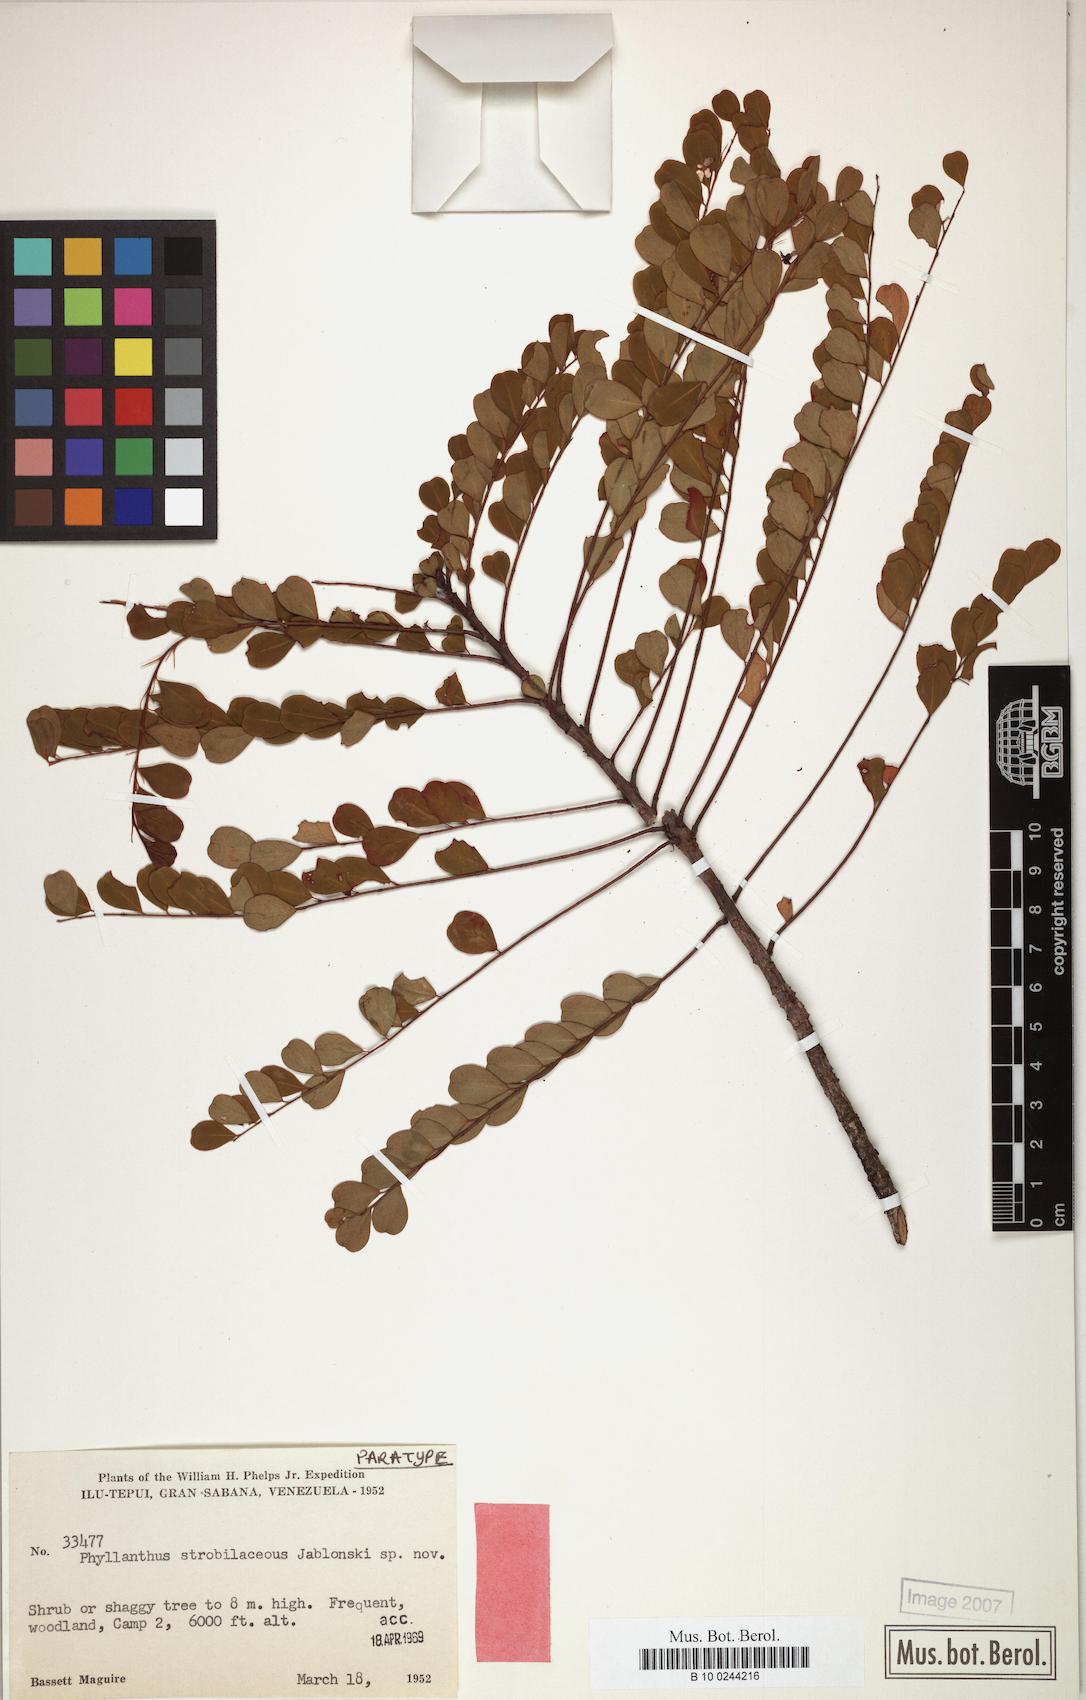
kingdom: Plantae
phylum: Tracheophyta
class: Magnoliopsida
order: Malpighiales
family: Phyllanthaceae
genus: Phyllanthus
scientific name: Phyllanthus strobilaceus
